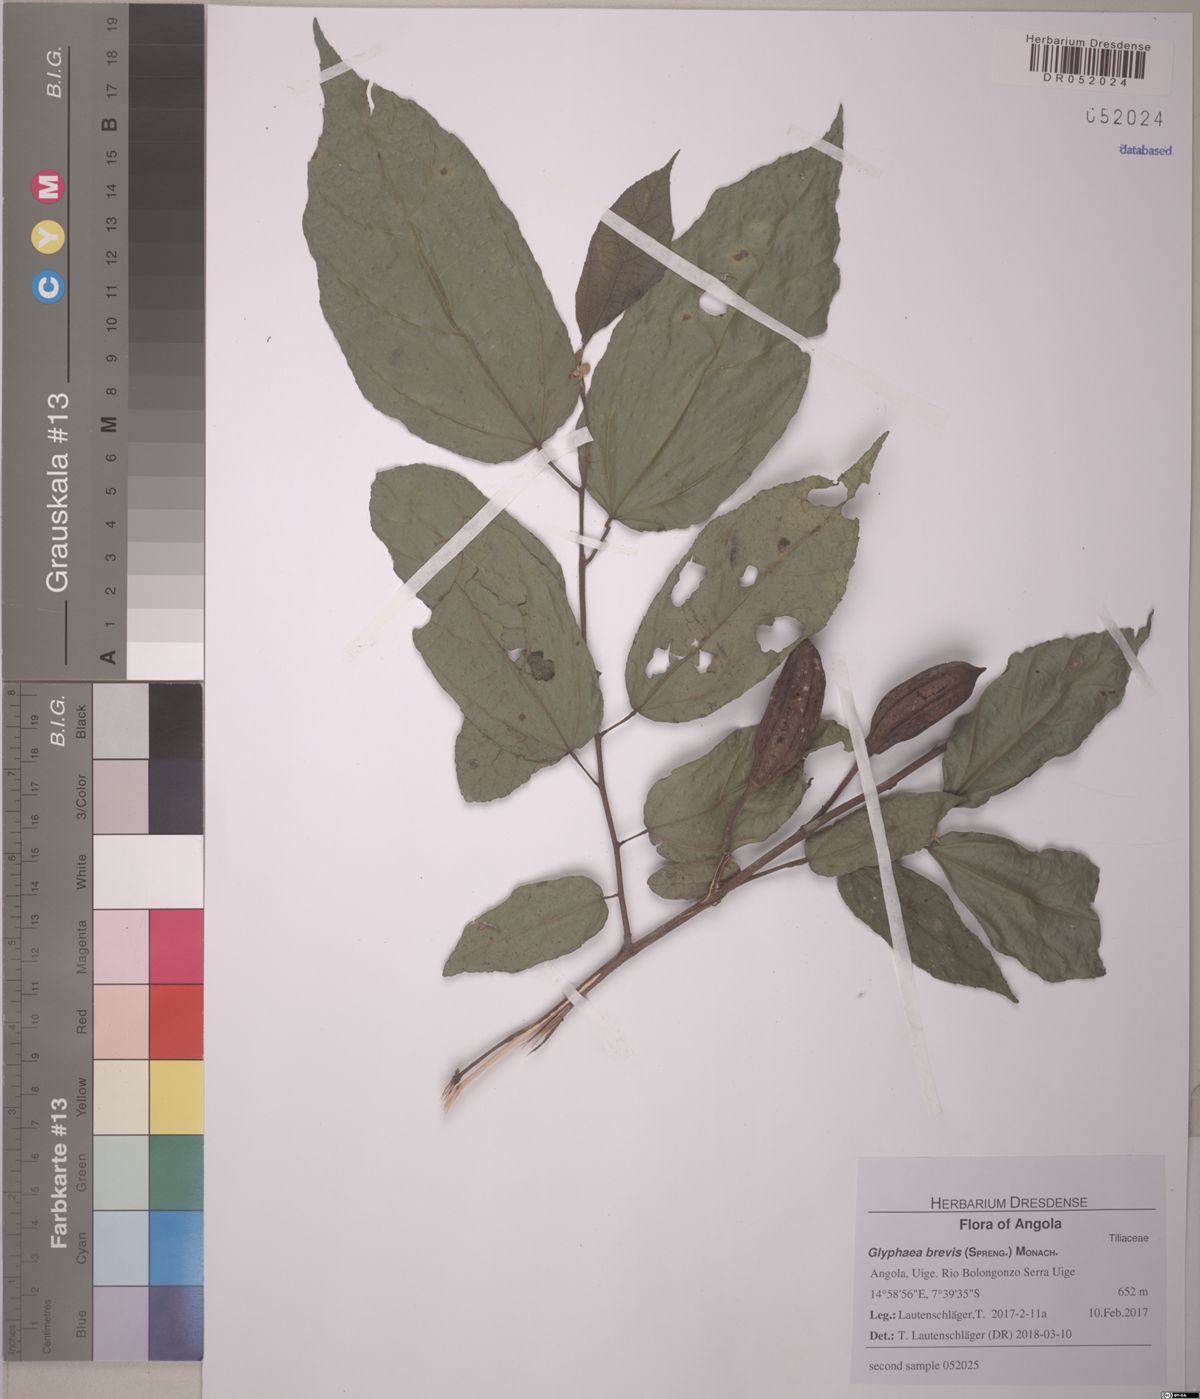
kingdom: Plantae
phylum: Tracheophyta
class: Magnoliopsida
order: Malvales
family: Malvaceae
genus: Glyphaea
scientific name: Glyphaea brevis
